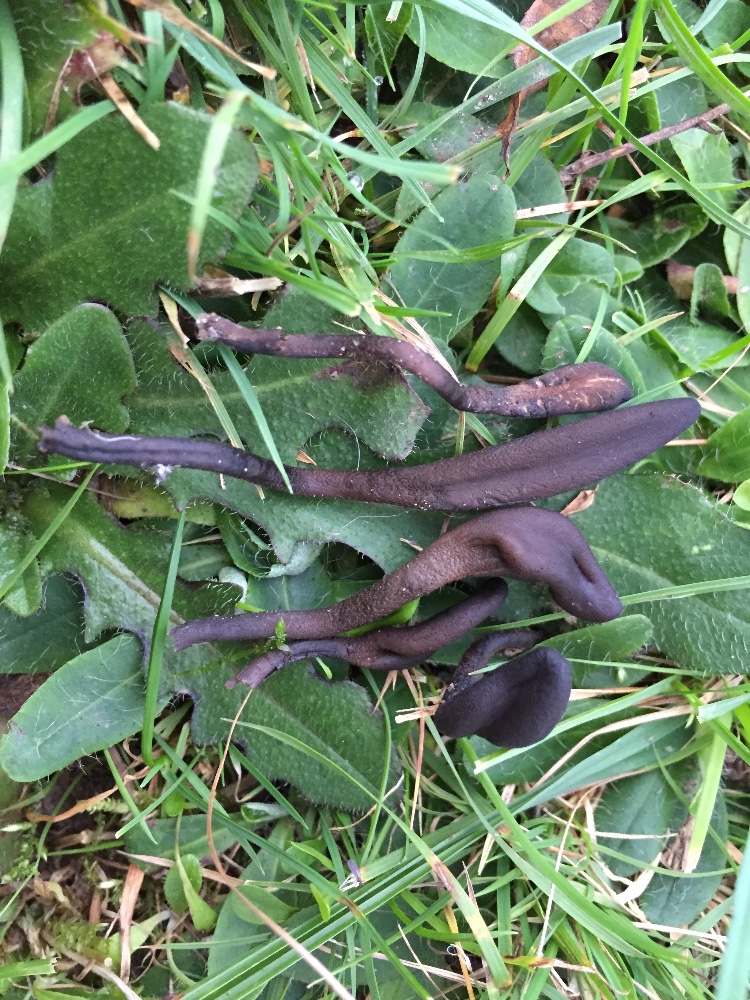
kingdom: Fungi
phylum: Ascomycota
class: Geoglossomycetes
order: Geoglossales
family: Geoglossaceae
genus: Geoglossum
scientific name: Geoglossum
